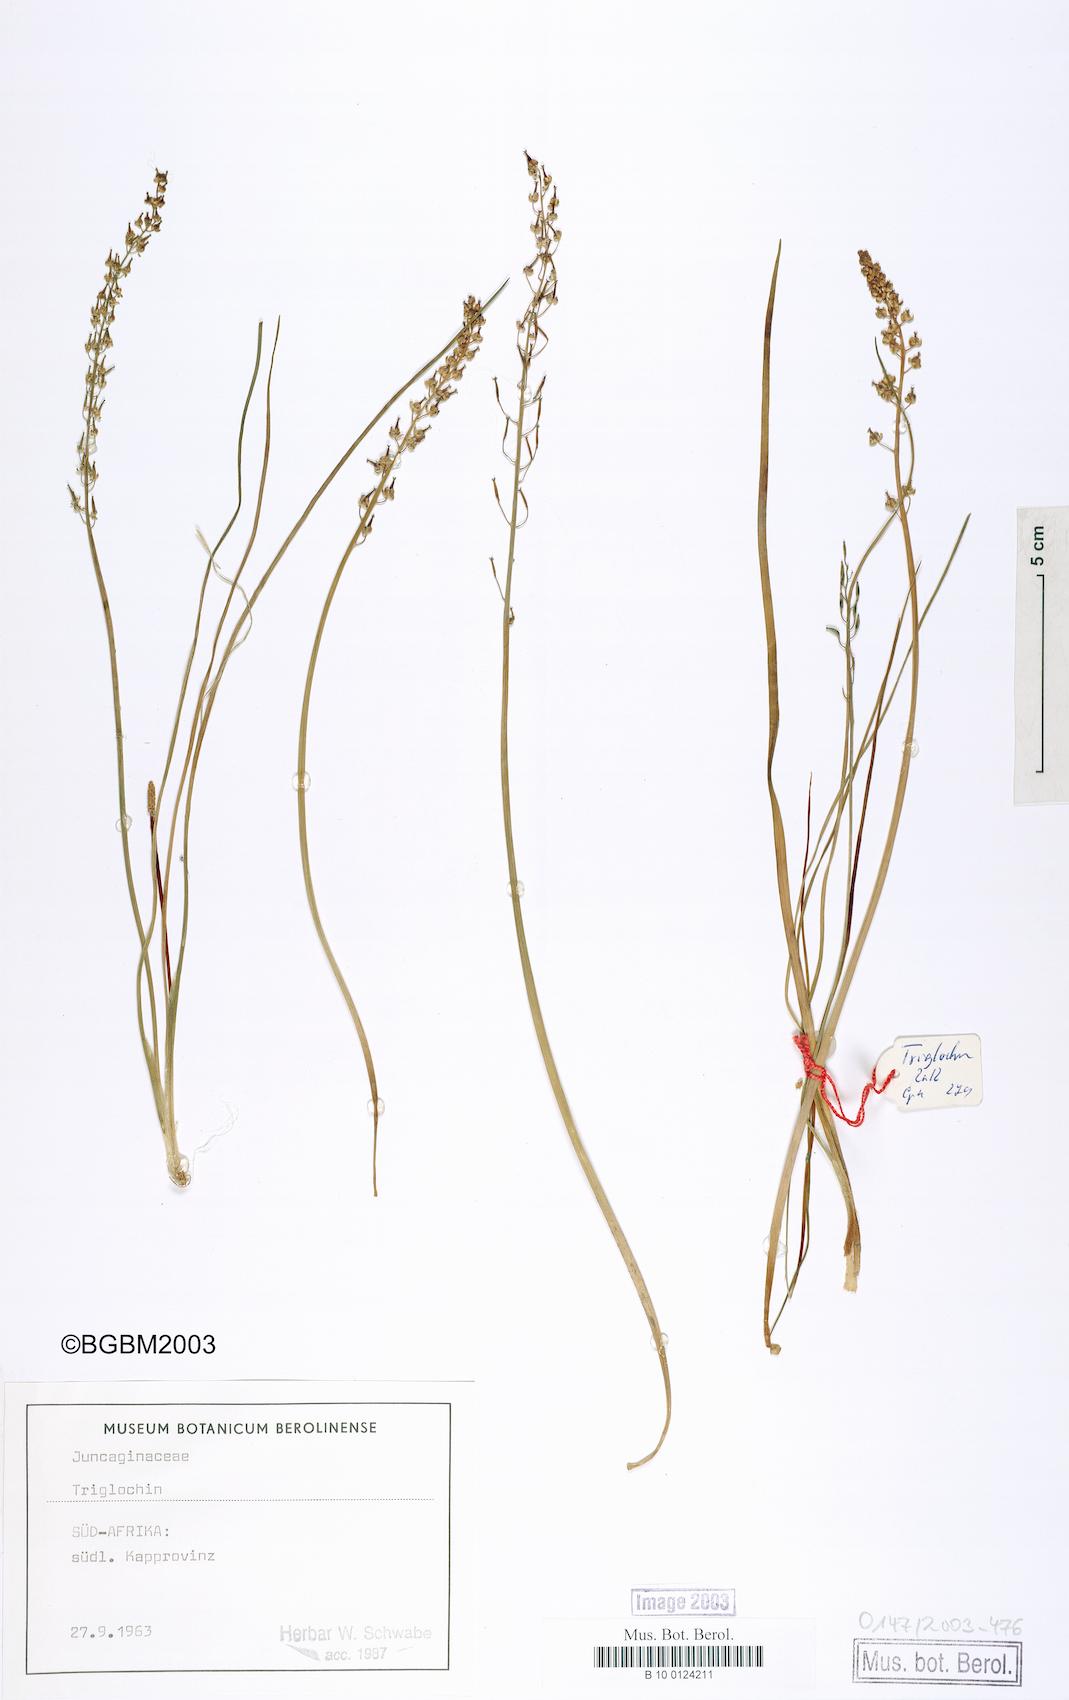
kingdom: Plantae
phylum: Tracheophyta
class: Liliopsida
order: Alismatales
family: Juncaginaceae
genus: Triglochin
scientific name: Triglochin bulbosa
